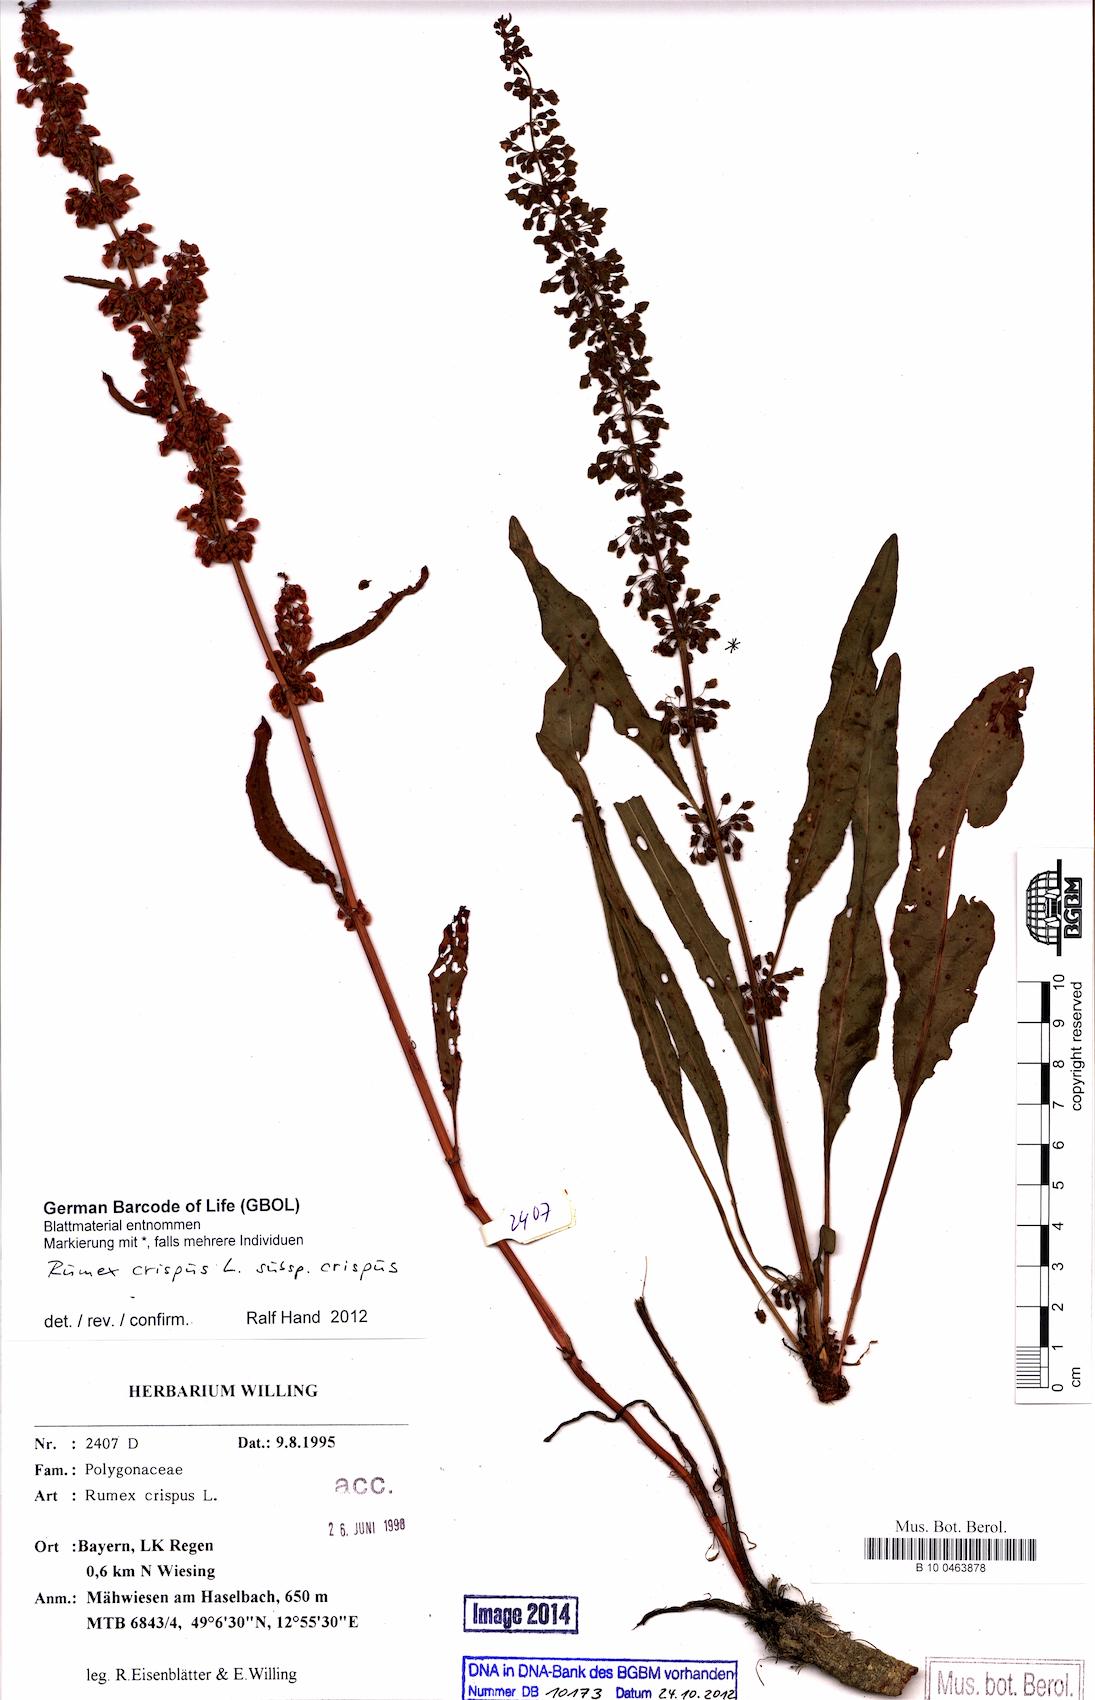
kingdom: Plantae
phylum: Tracheophyta
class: Magnoliopsida
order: Caryophyllales
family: Polygonaceae
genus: Rumex
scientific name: Rumex crispus
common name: Curled dock
